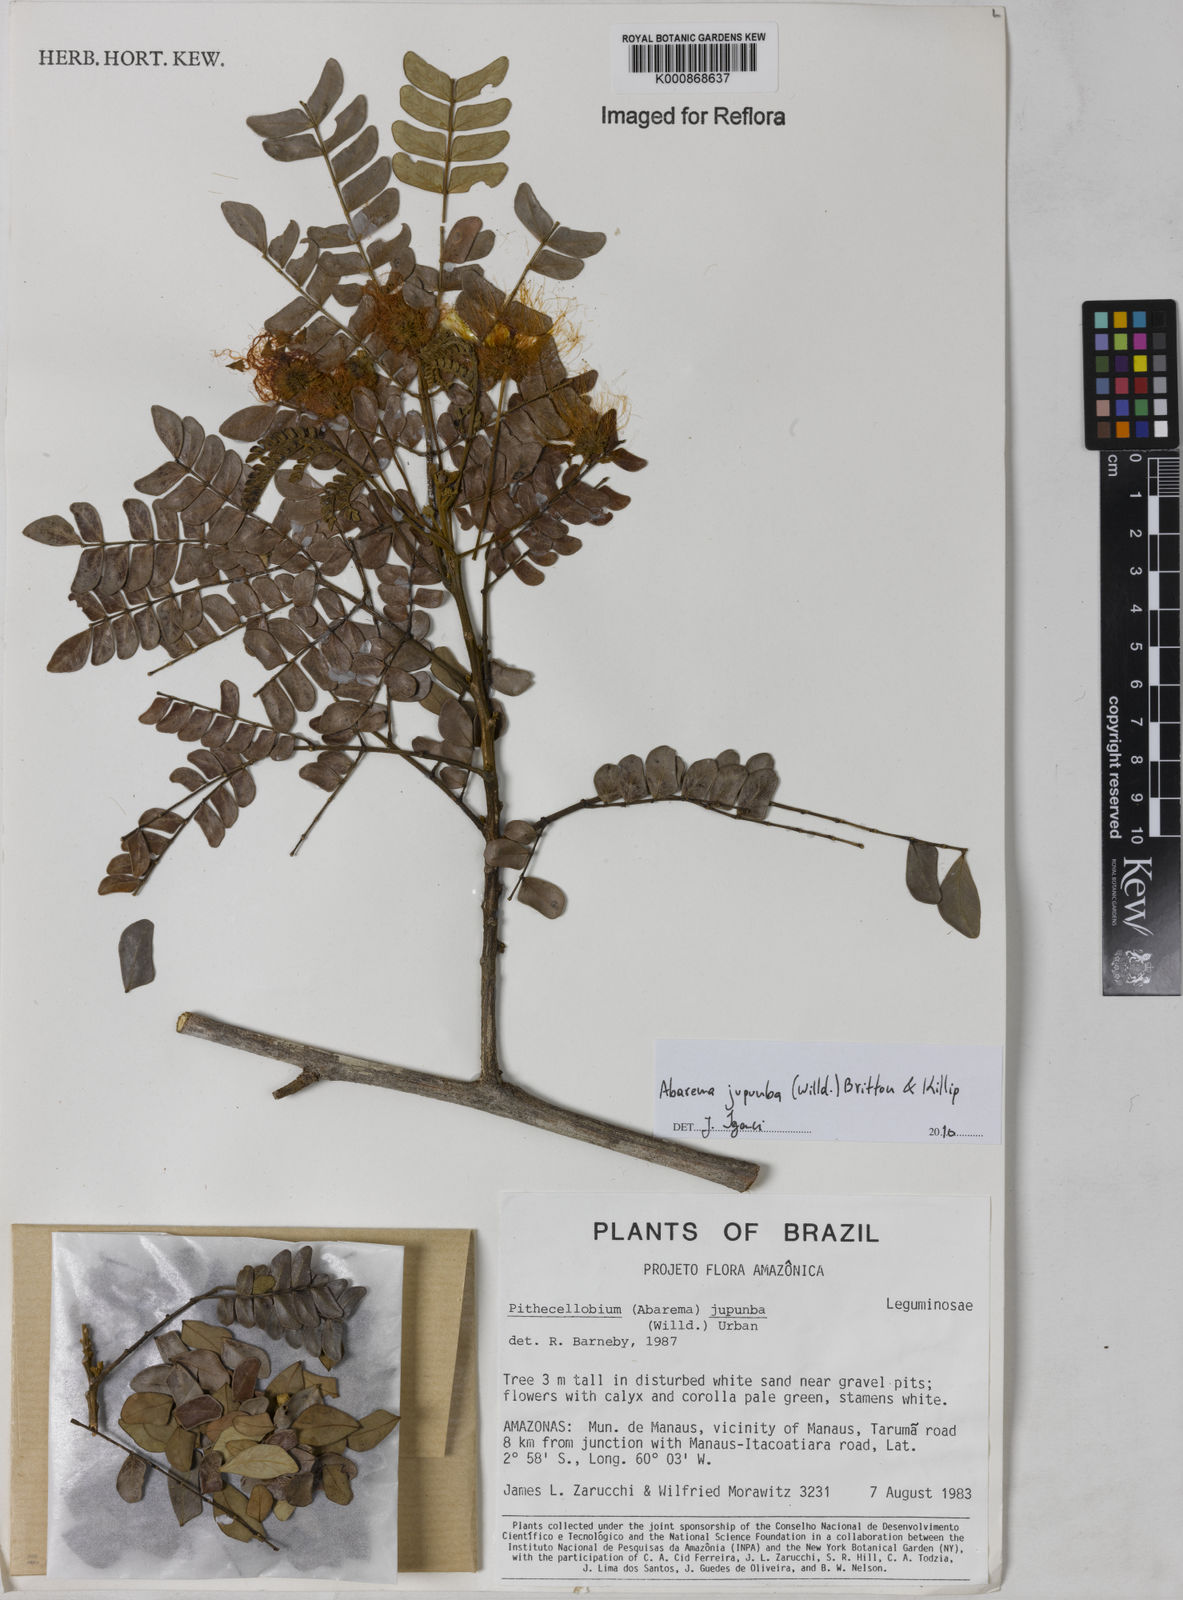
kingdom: Plantae
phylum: Tracheophyta
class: Magnoliopsida
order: Fabales
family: Fabaceae
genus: Jupunba
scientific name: Jupunba trapezifolia
